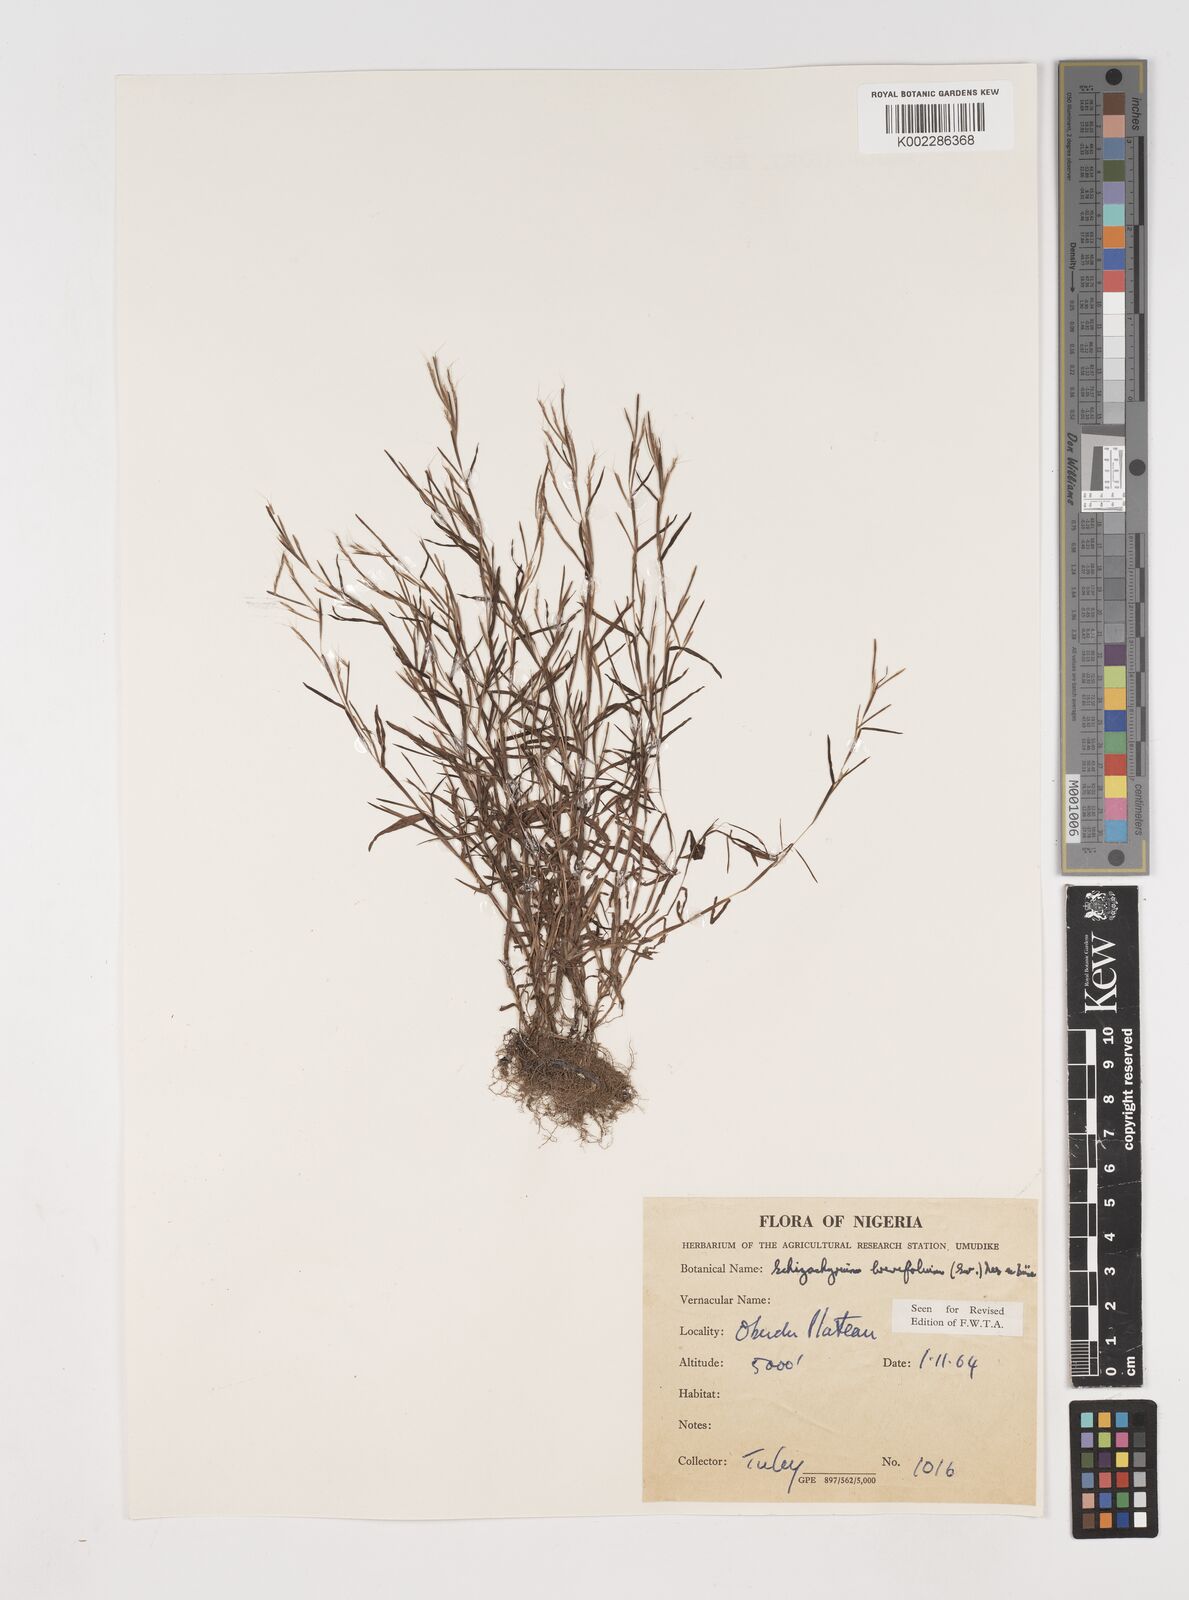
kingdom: Plantae
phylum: Tracheophyta
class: Liliopsida
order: Poales
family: Poaceae
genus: Schizachyrium
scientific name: Schizachyrium brevifolium
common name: Serillo dulce
